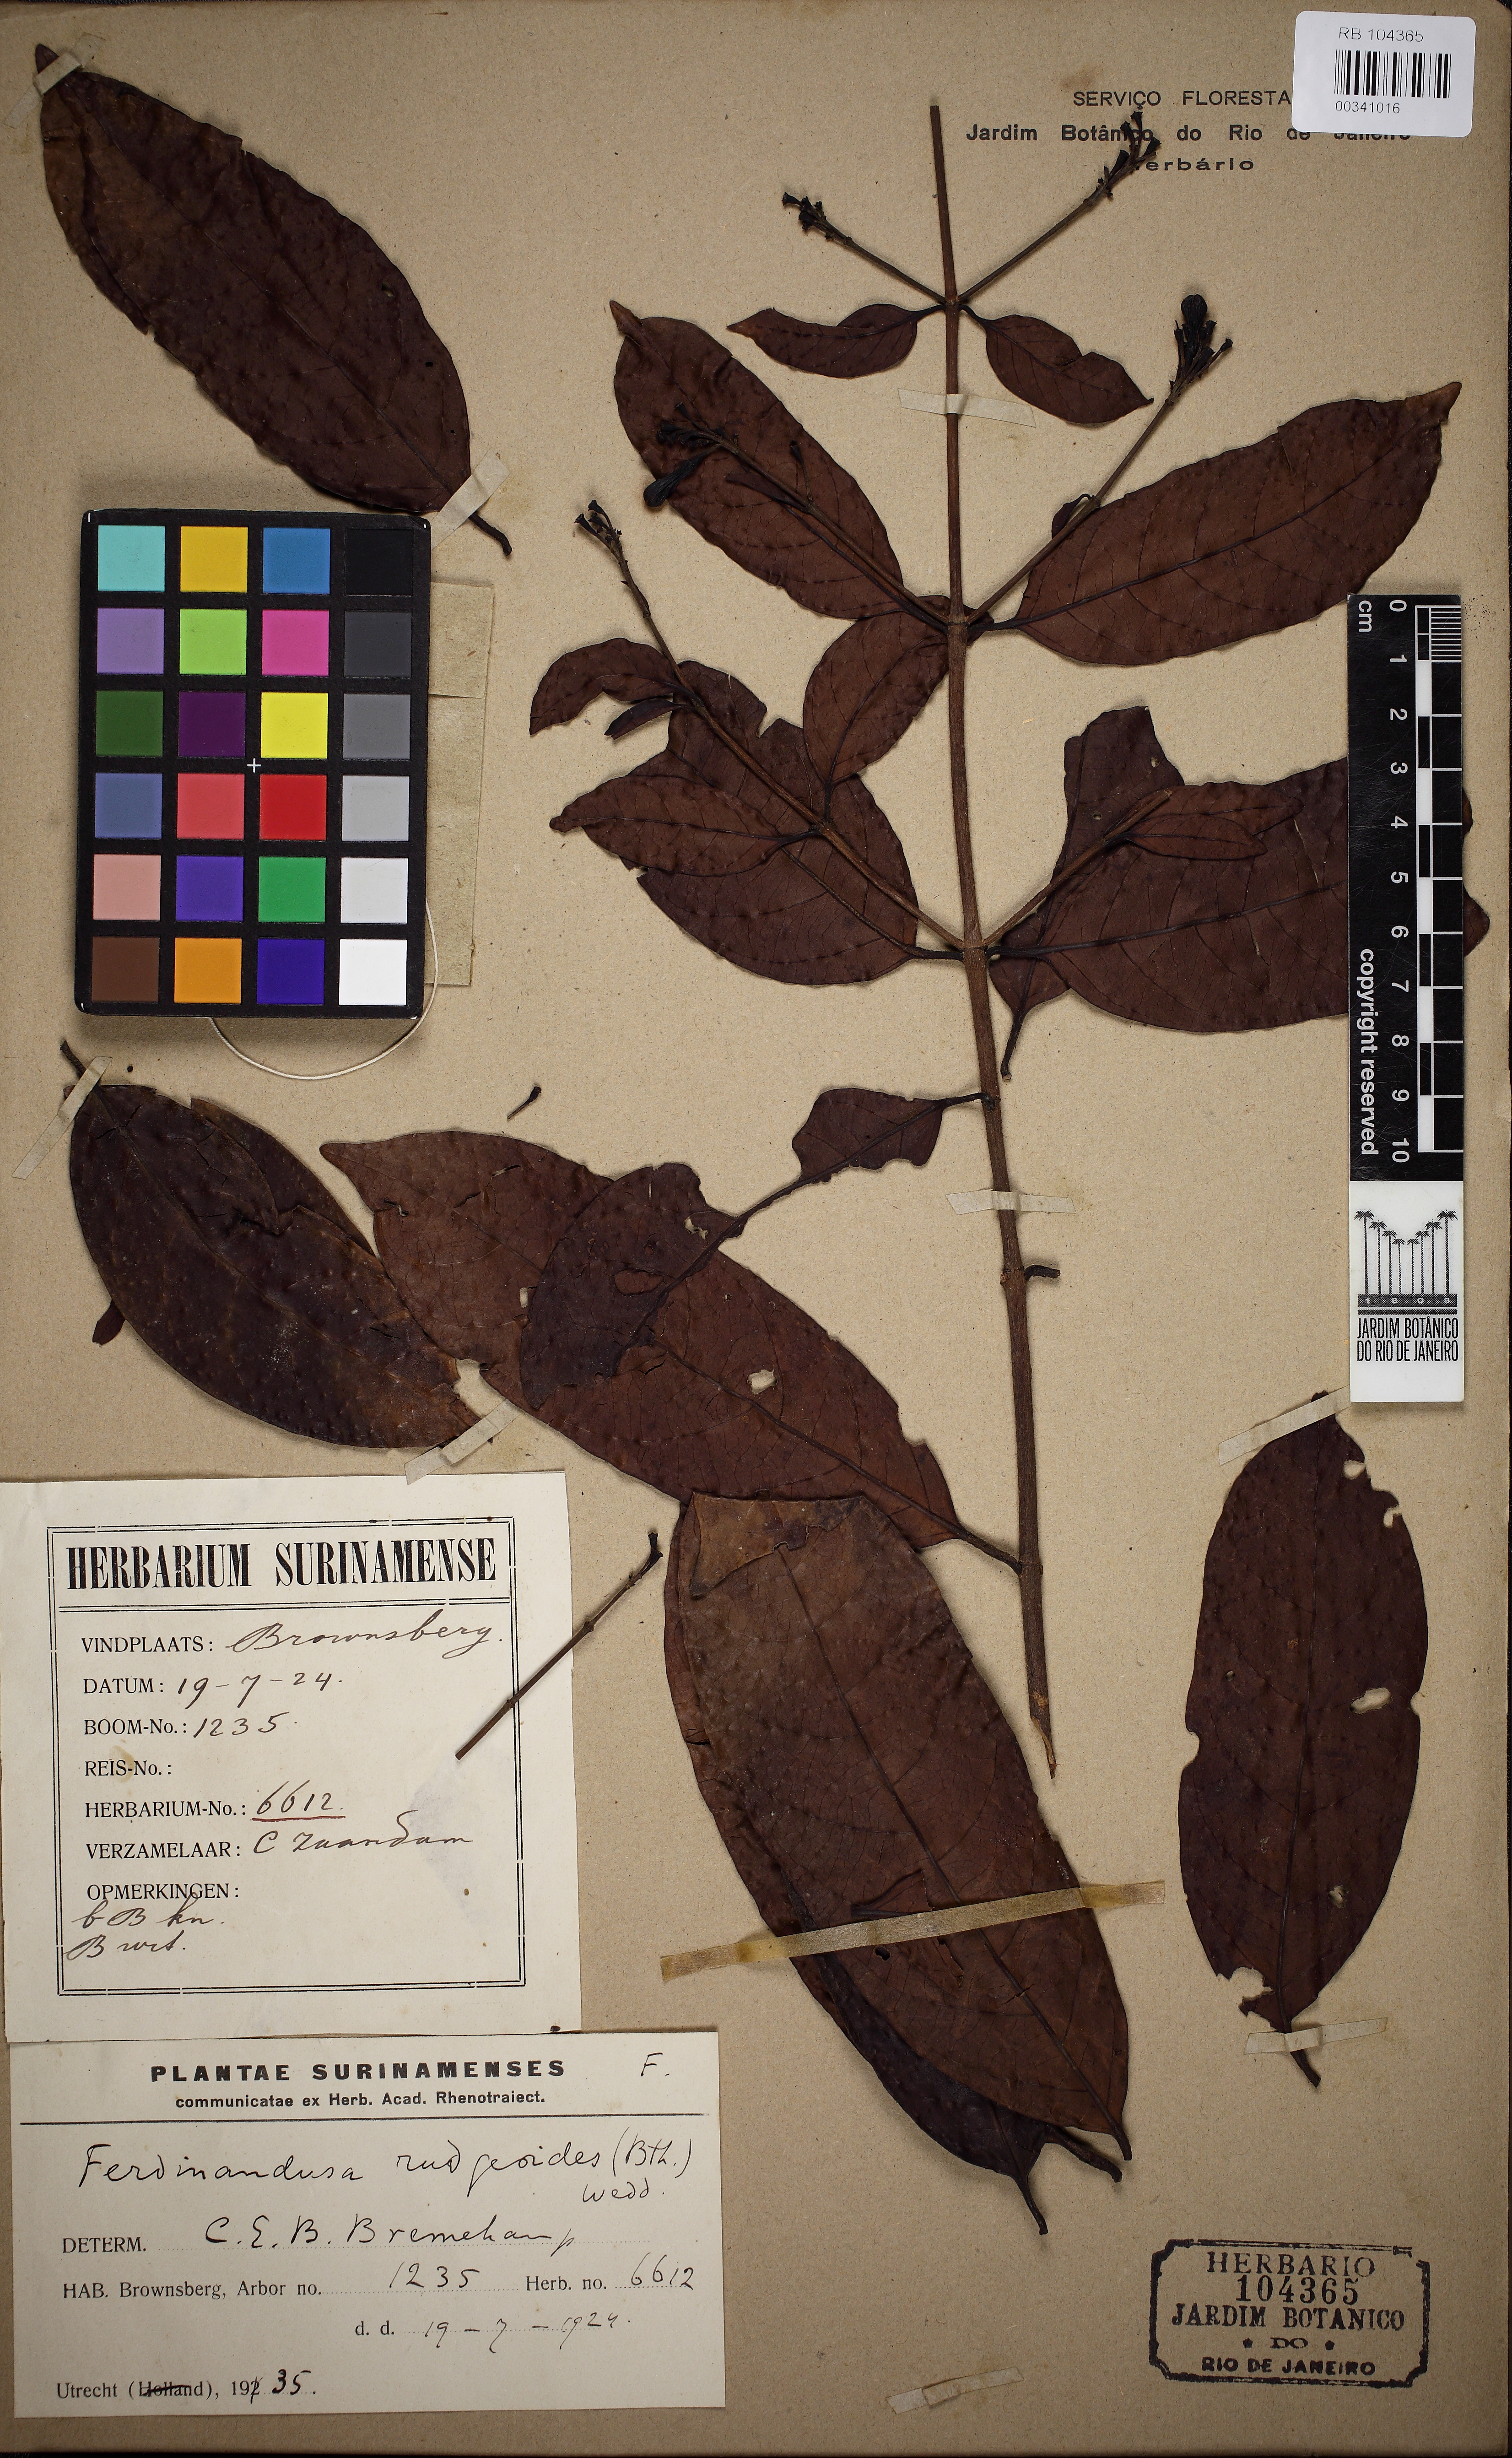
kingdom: Plantae
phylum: Tracheophyta
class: Magnoliopsida
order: Gentianales
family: Rubiaceae
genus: Ferdinandusa
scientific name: Ferdinandusa rudgeoides
